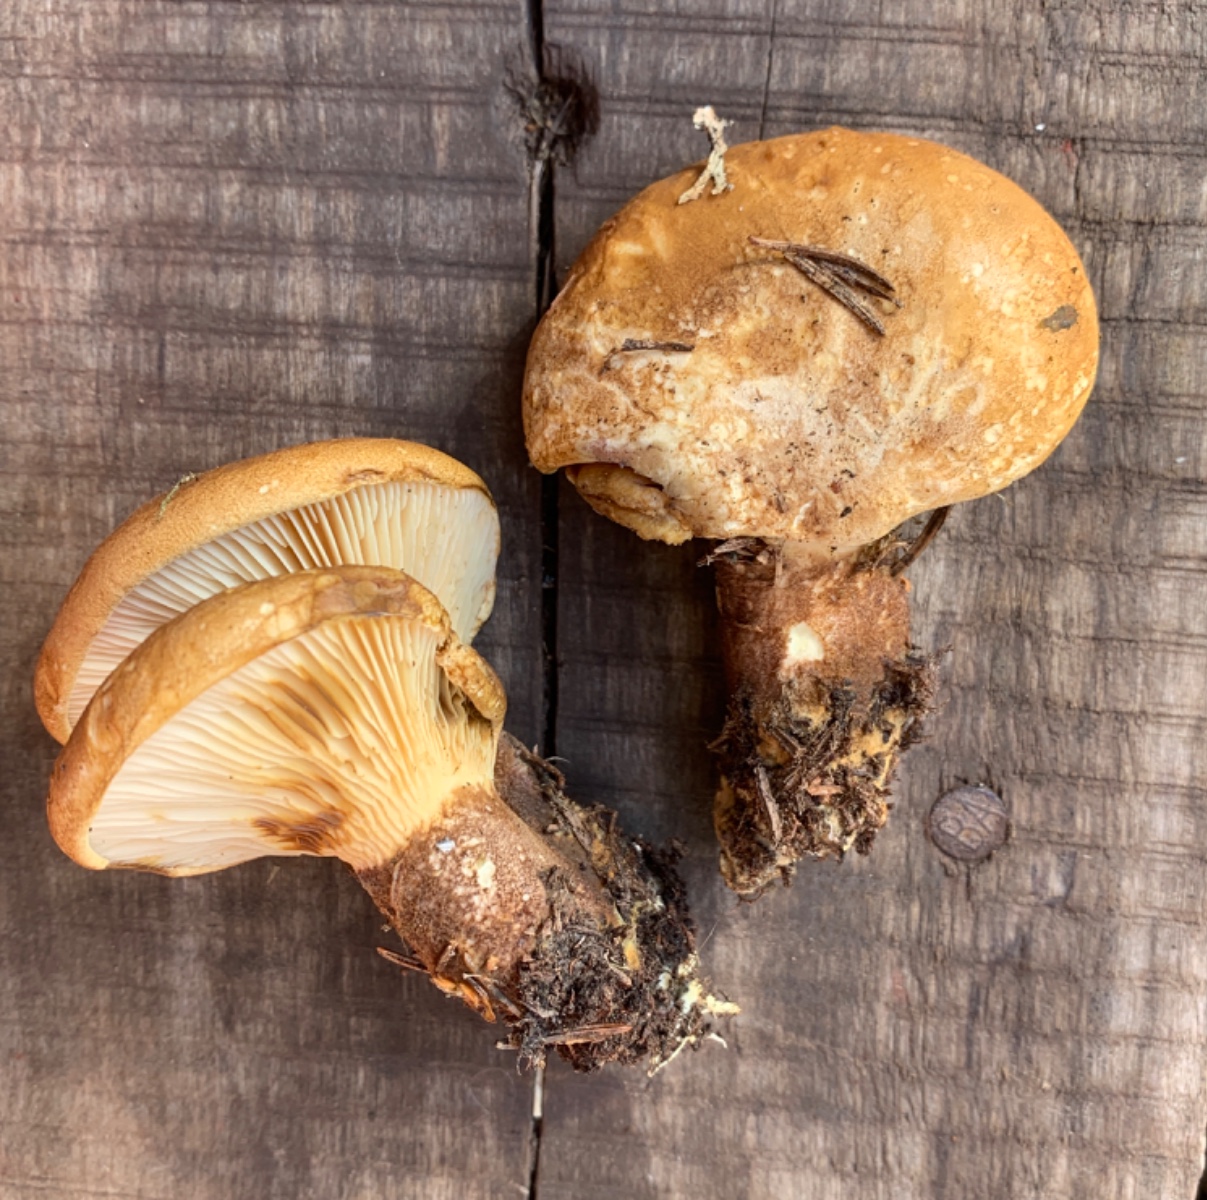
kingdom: Fungi
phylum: Basidiomycota
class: Agaricomycetes
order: Boletales
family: Tapinellaceae
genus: Tapinella
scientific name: Tapinella atrotomentosa
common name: sortfiltet viftesvamp
